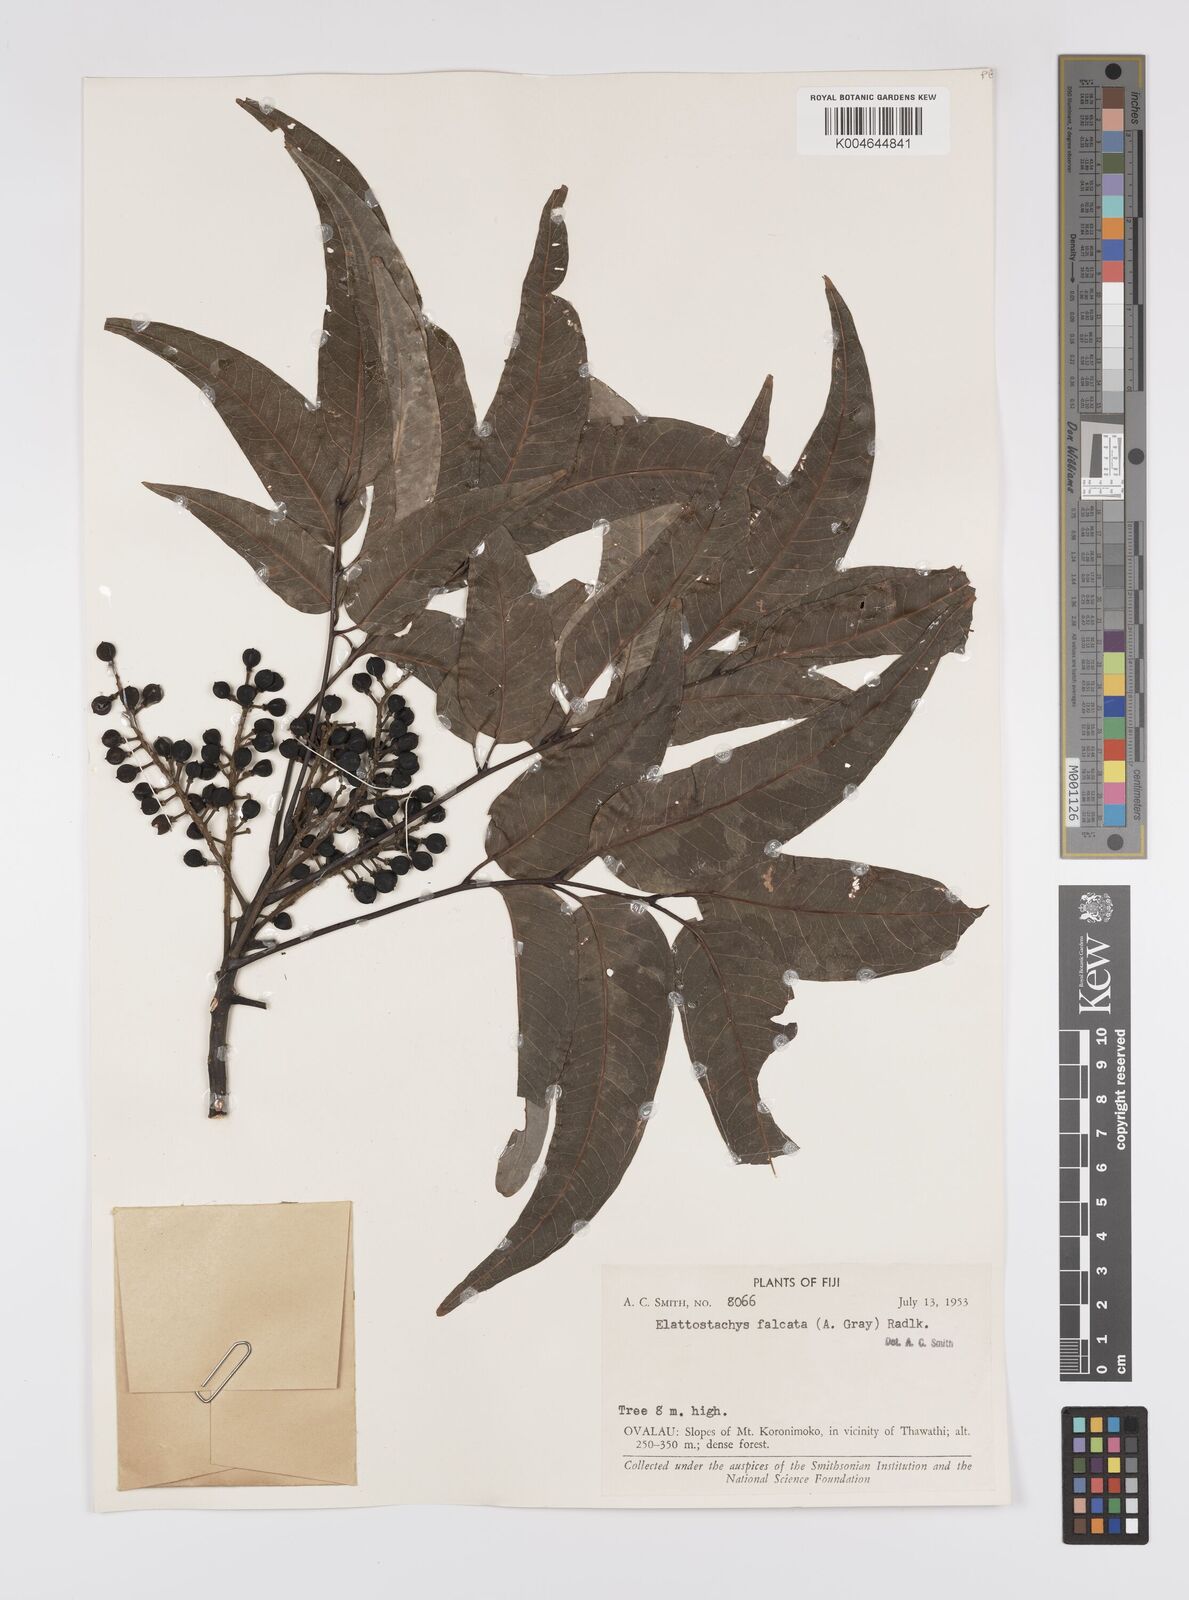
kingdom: Plantae
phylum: Tracheophyta
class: Magnoliopsida
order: Sapindales
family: Sapindaceae
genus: Elattostachys
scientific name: Elattostachys apetala
